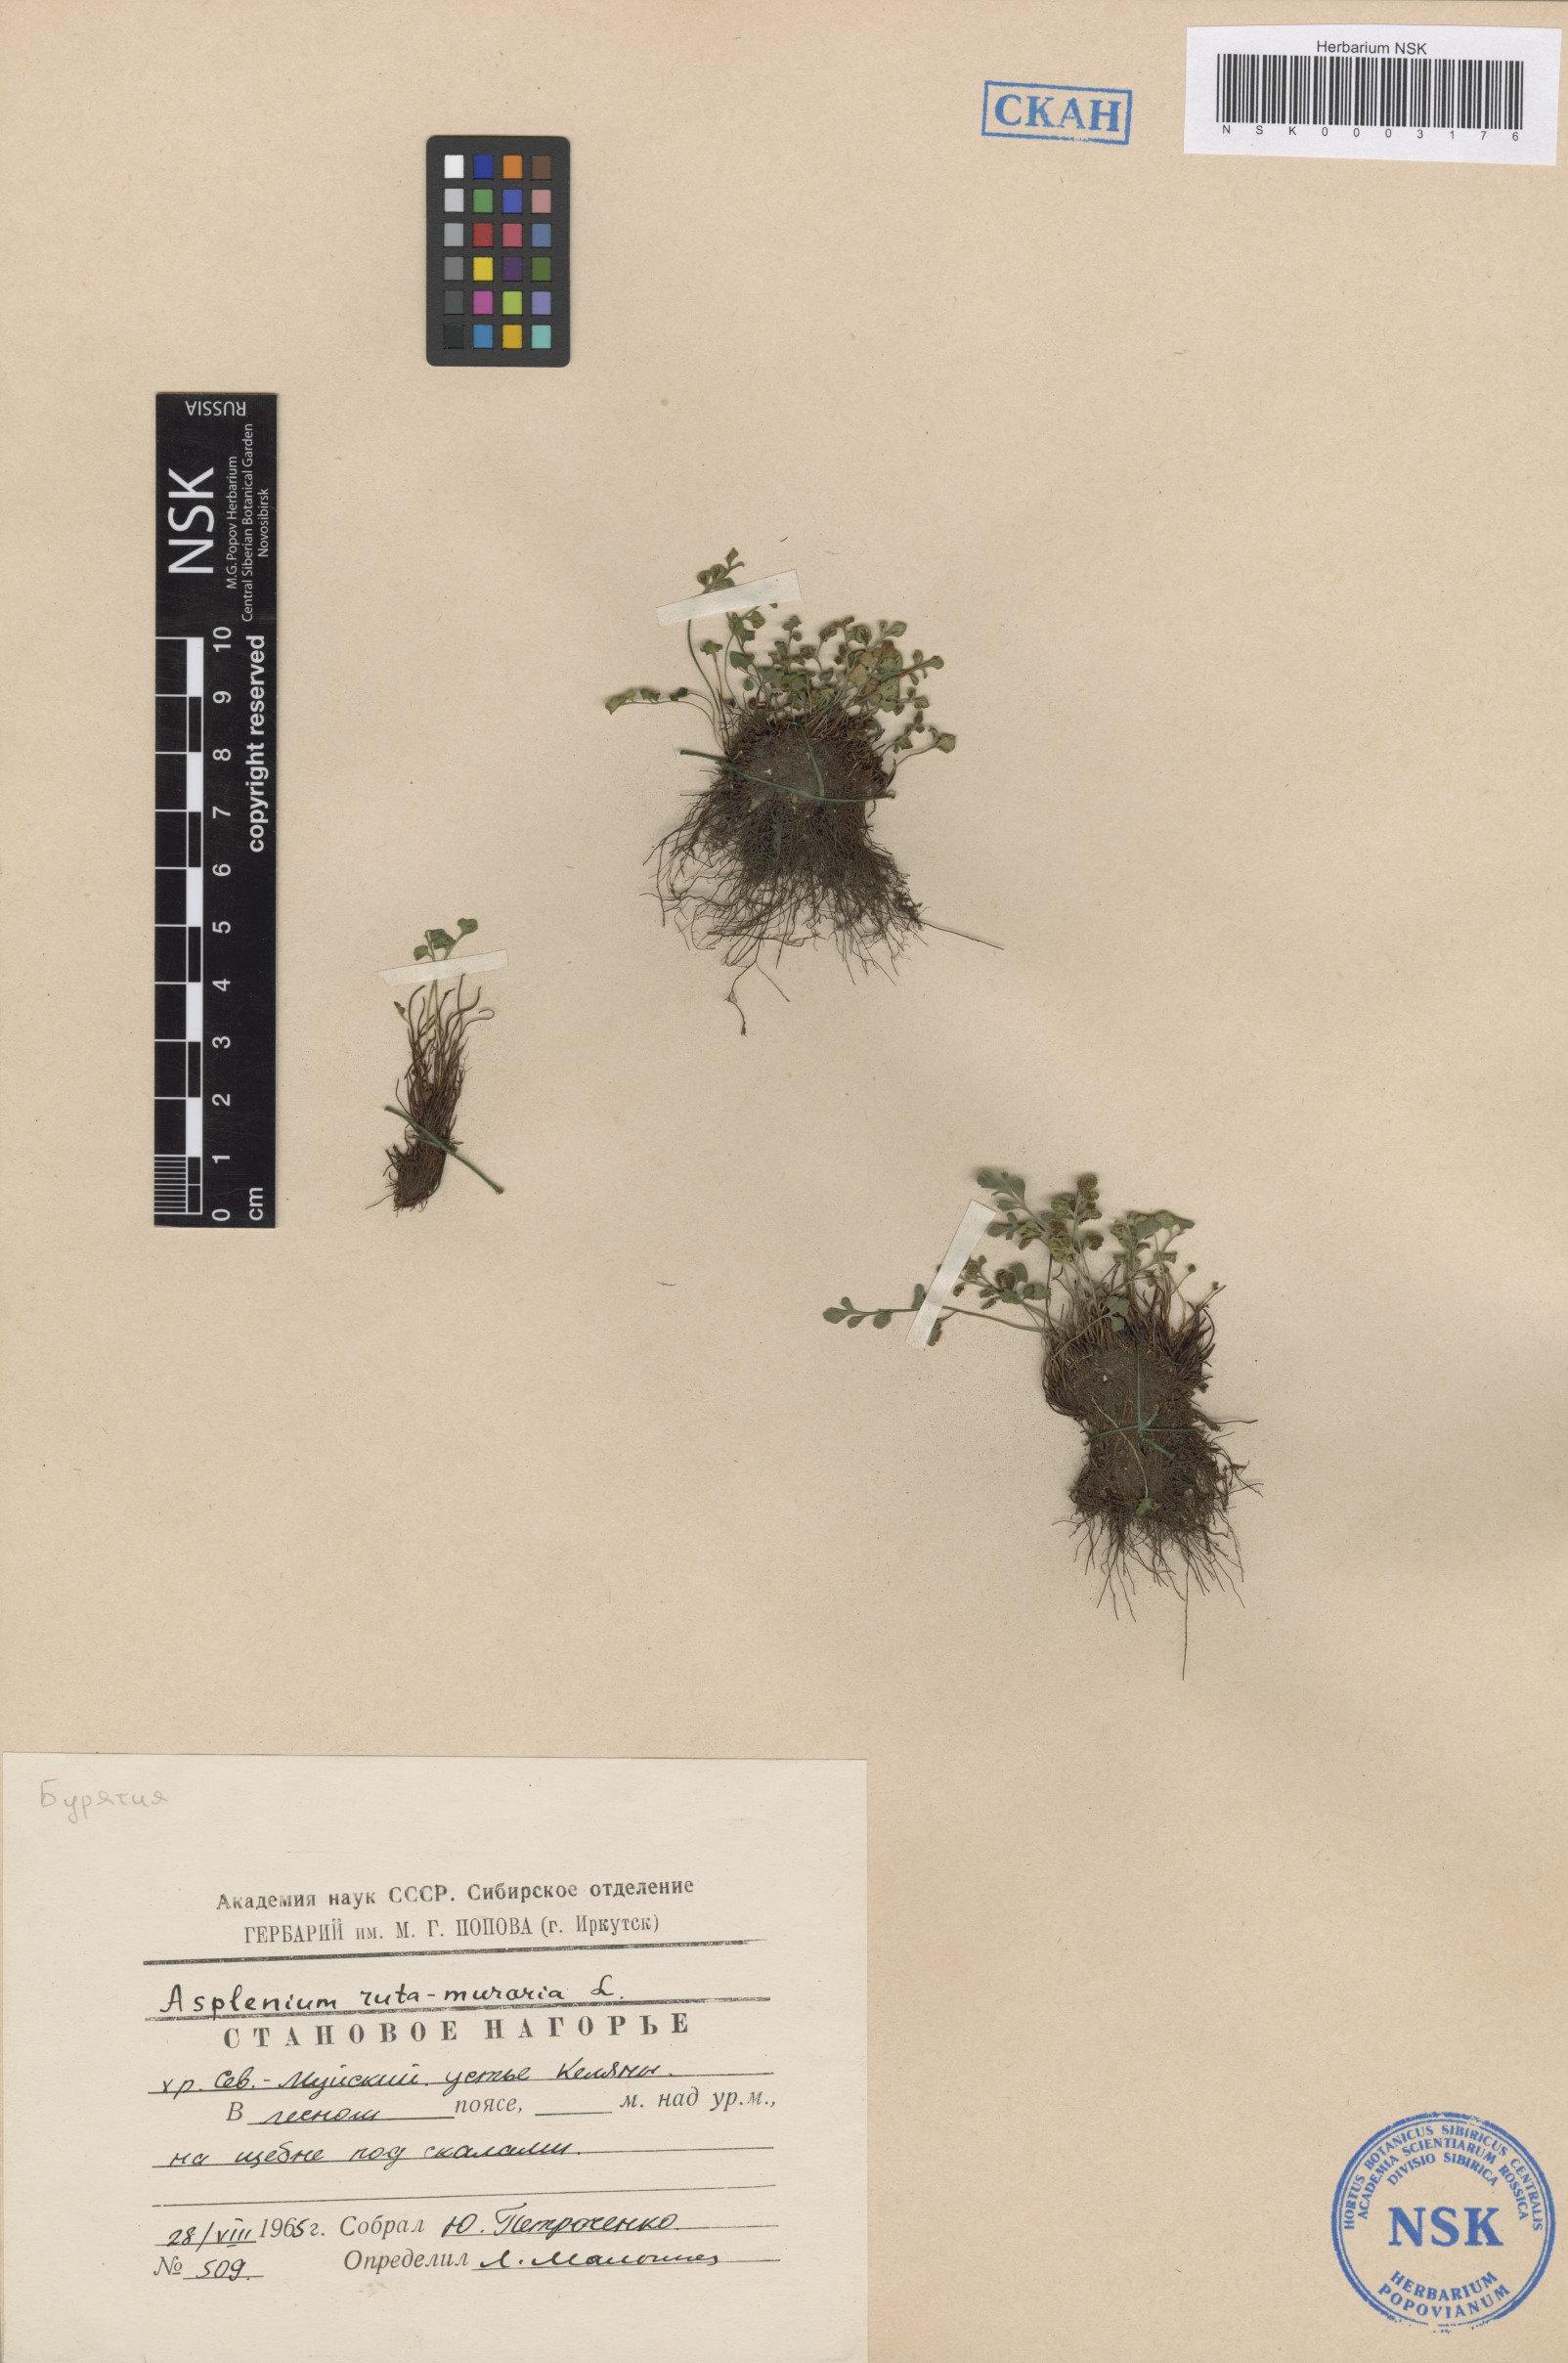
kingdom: Plantae
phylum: Tracheophyta
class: Polypodiopsida
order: Polypodiales
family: Aspleniaceae
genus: Asplenium
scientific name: Asplenium ruta-muraria
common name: Wall-rue
